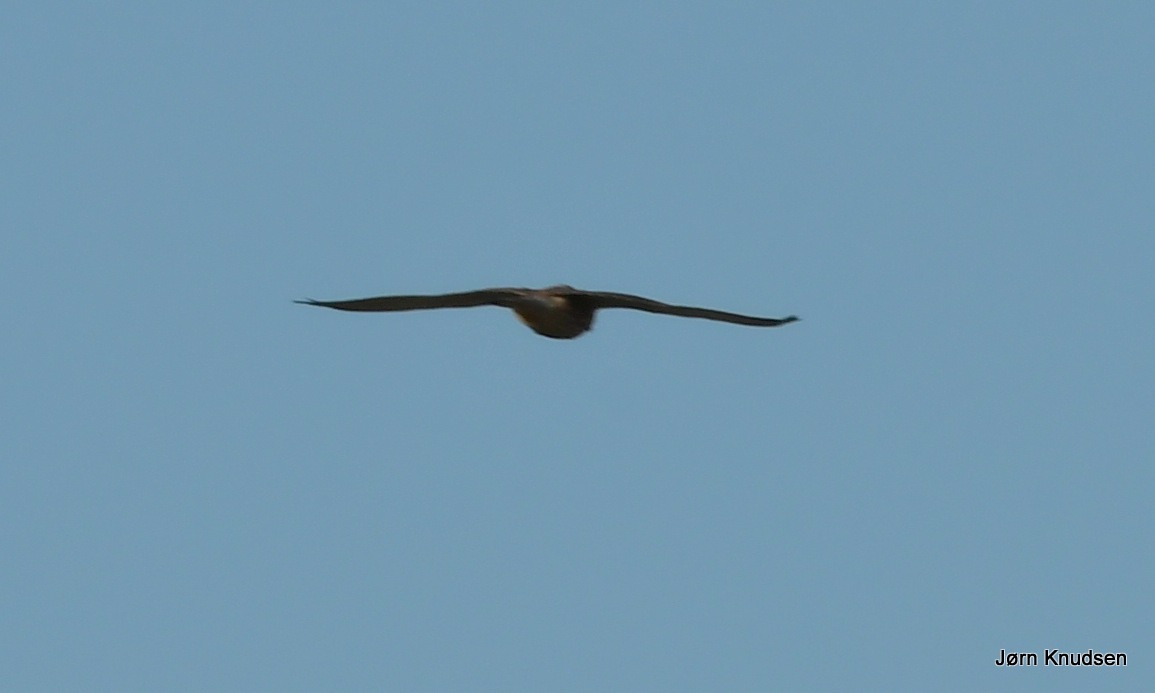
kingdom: Animalia
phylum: Chordata
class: Aves
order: Falconiformes
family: Falconidae
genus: Falco
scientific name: Falco tinnunculus
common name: Tårnfalk
